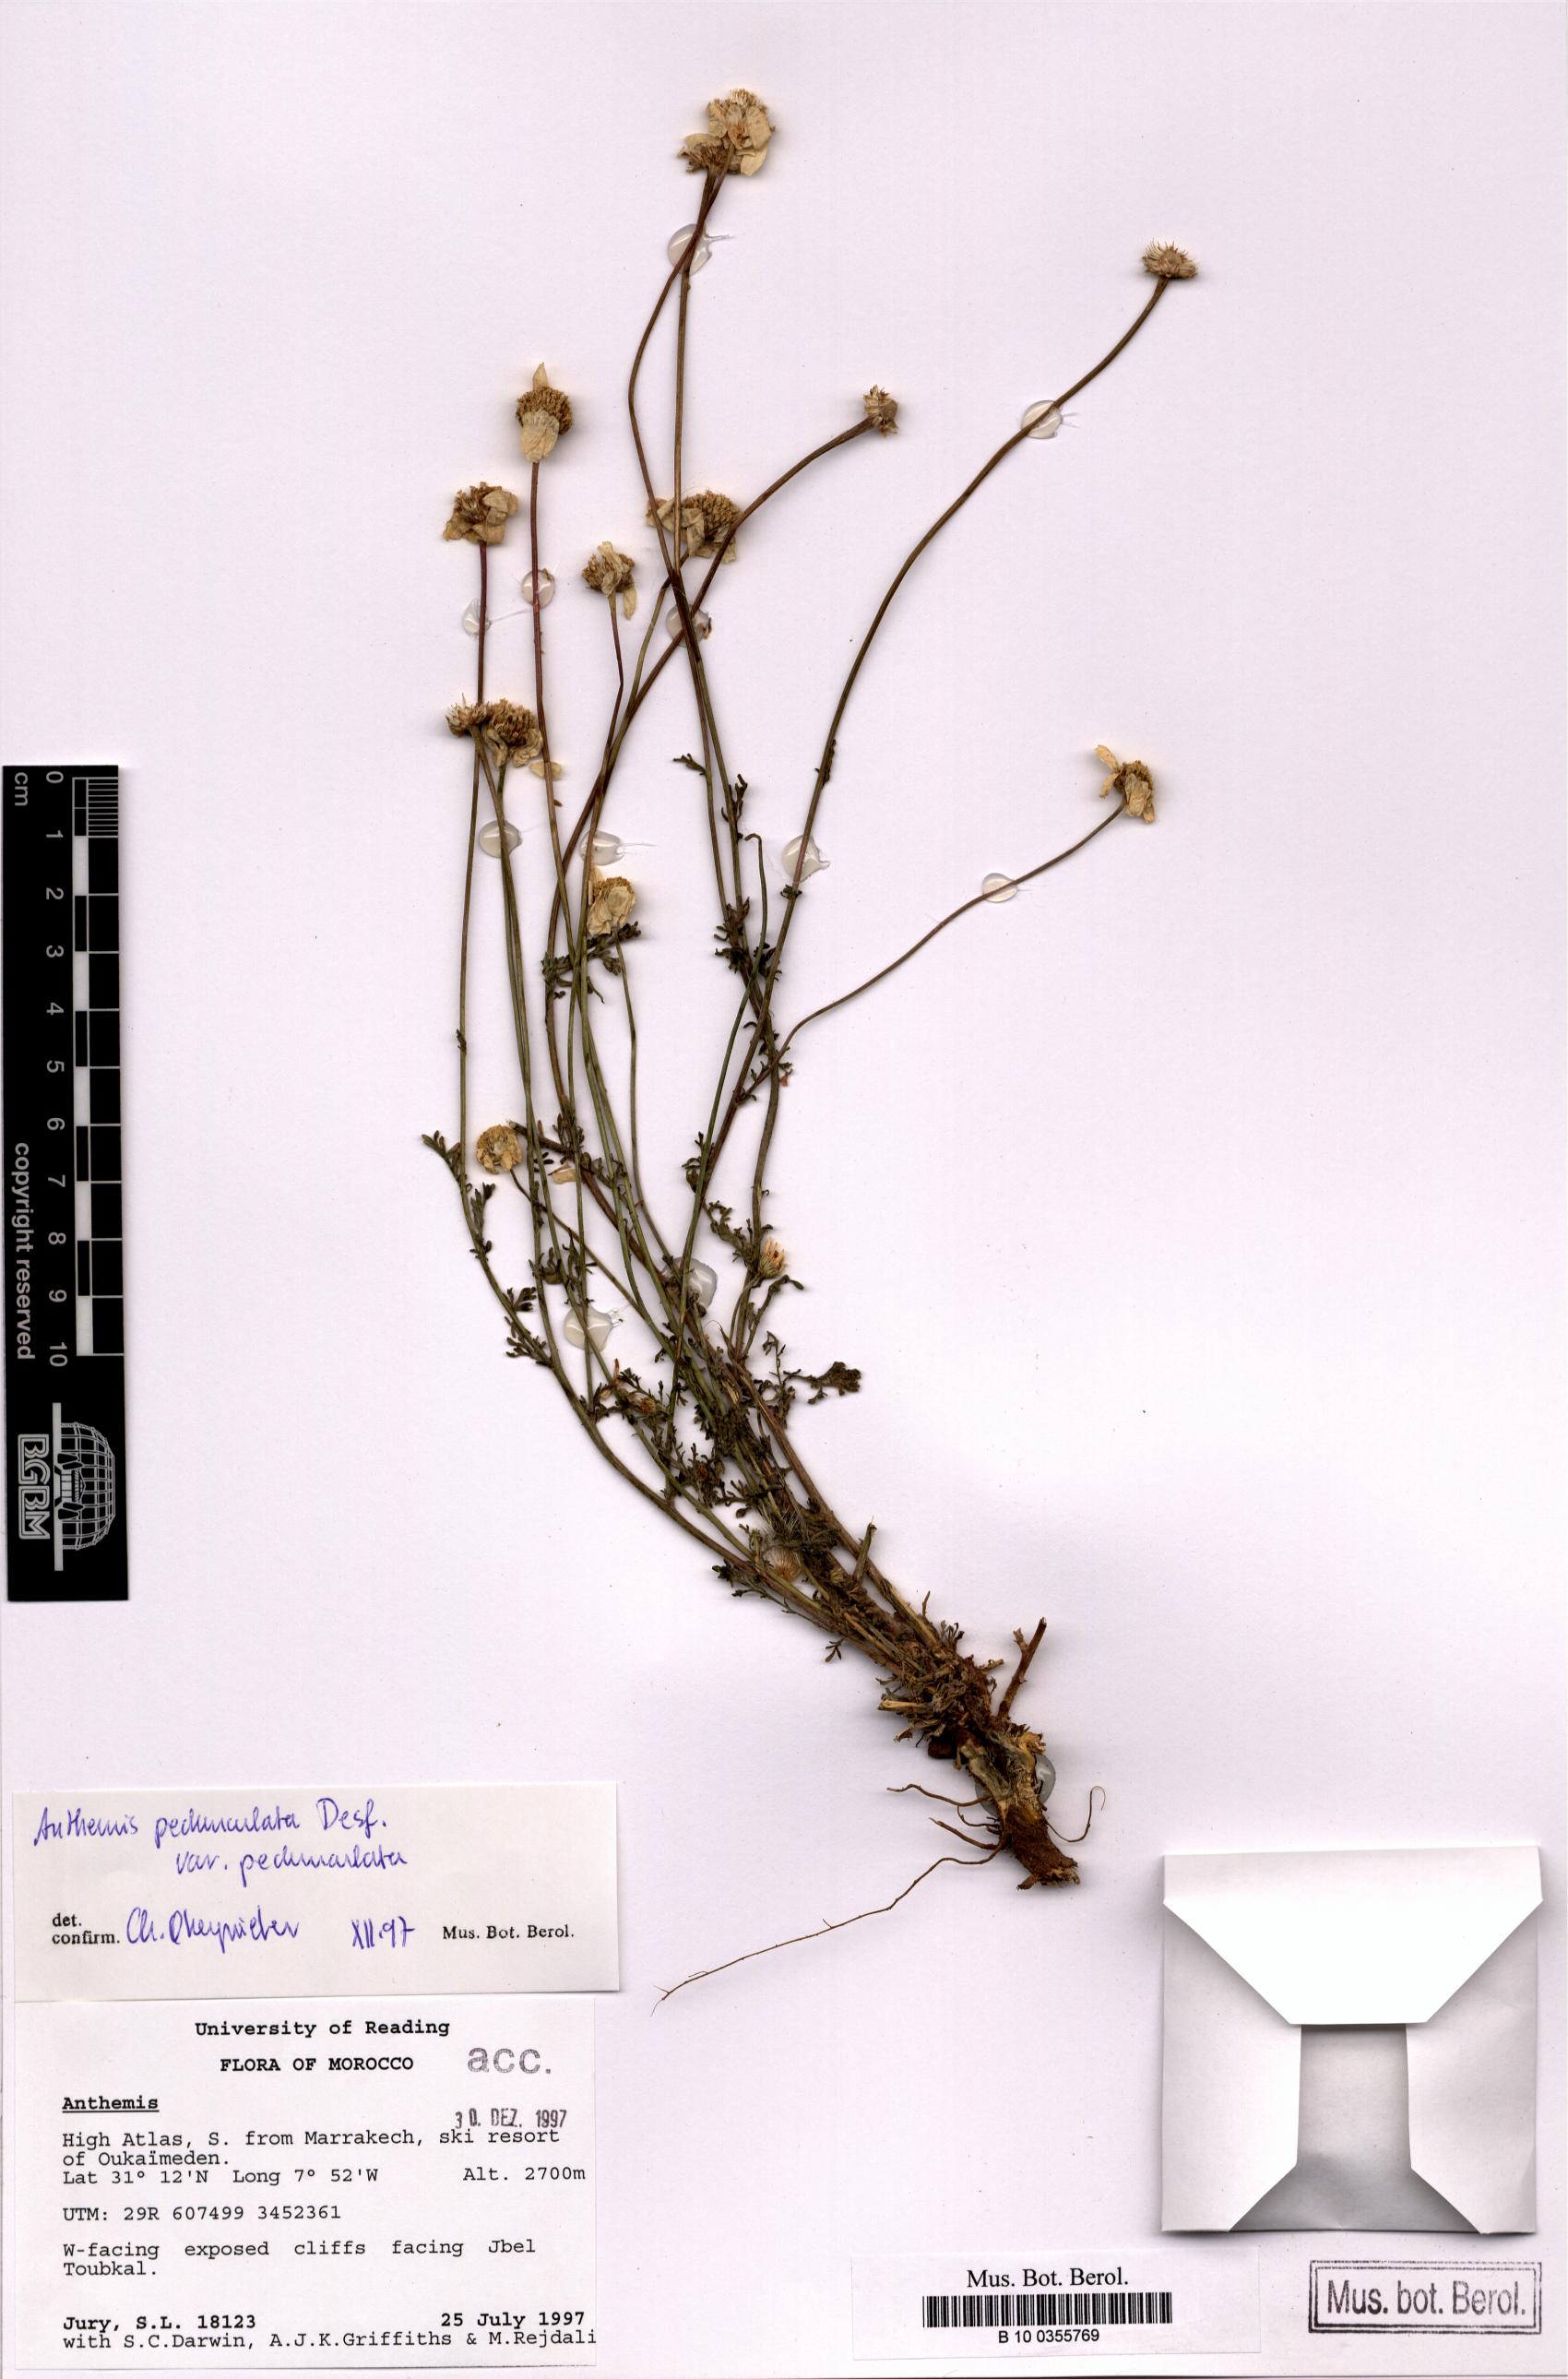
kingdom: Plantae
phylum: Tracheophyta
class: Magnoliopsida
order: Asterales
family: Asteraceae
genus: Anthemis
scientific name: Anthemis pedunculata
